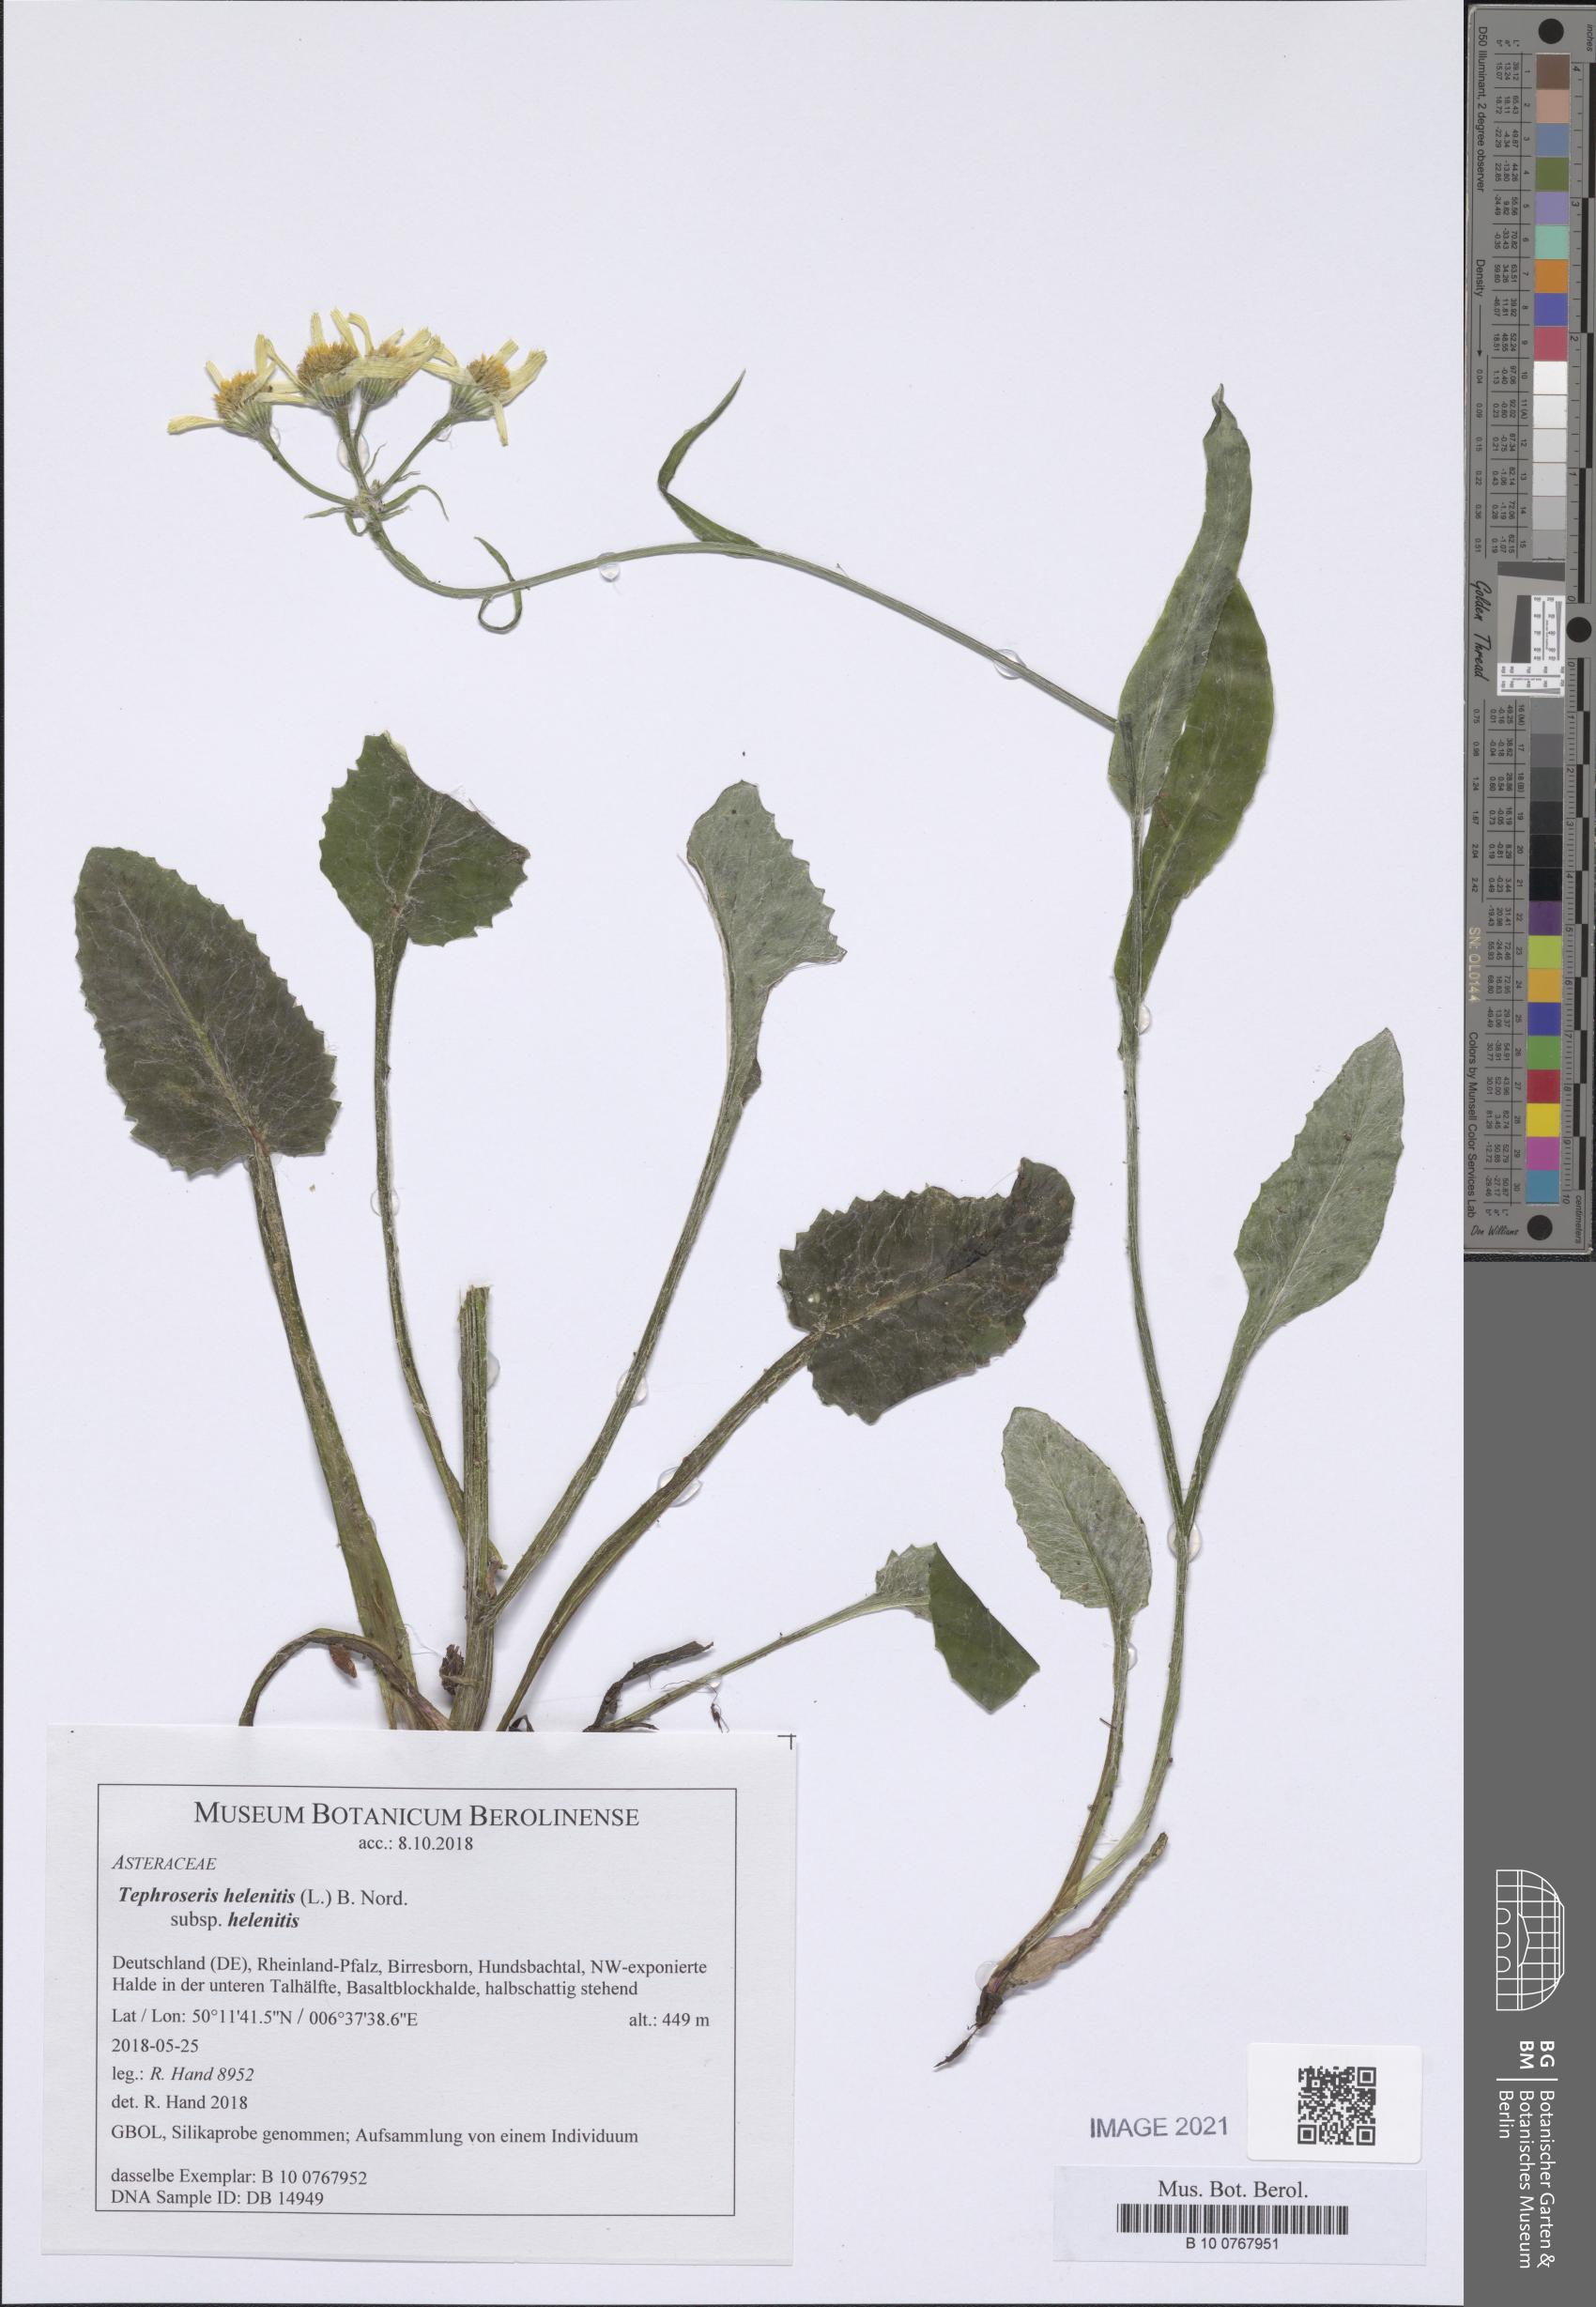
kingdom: Plantae
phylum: Tracheophyta
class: Magnoliopsida
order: Asterales
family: Asteraceae
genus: Tephroseris
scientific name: Tephroseris helenitis
